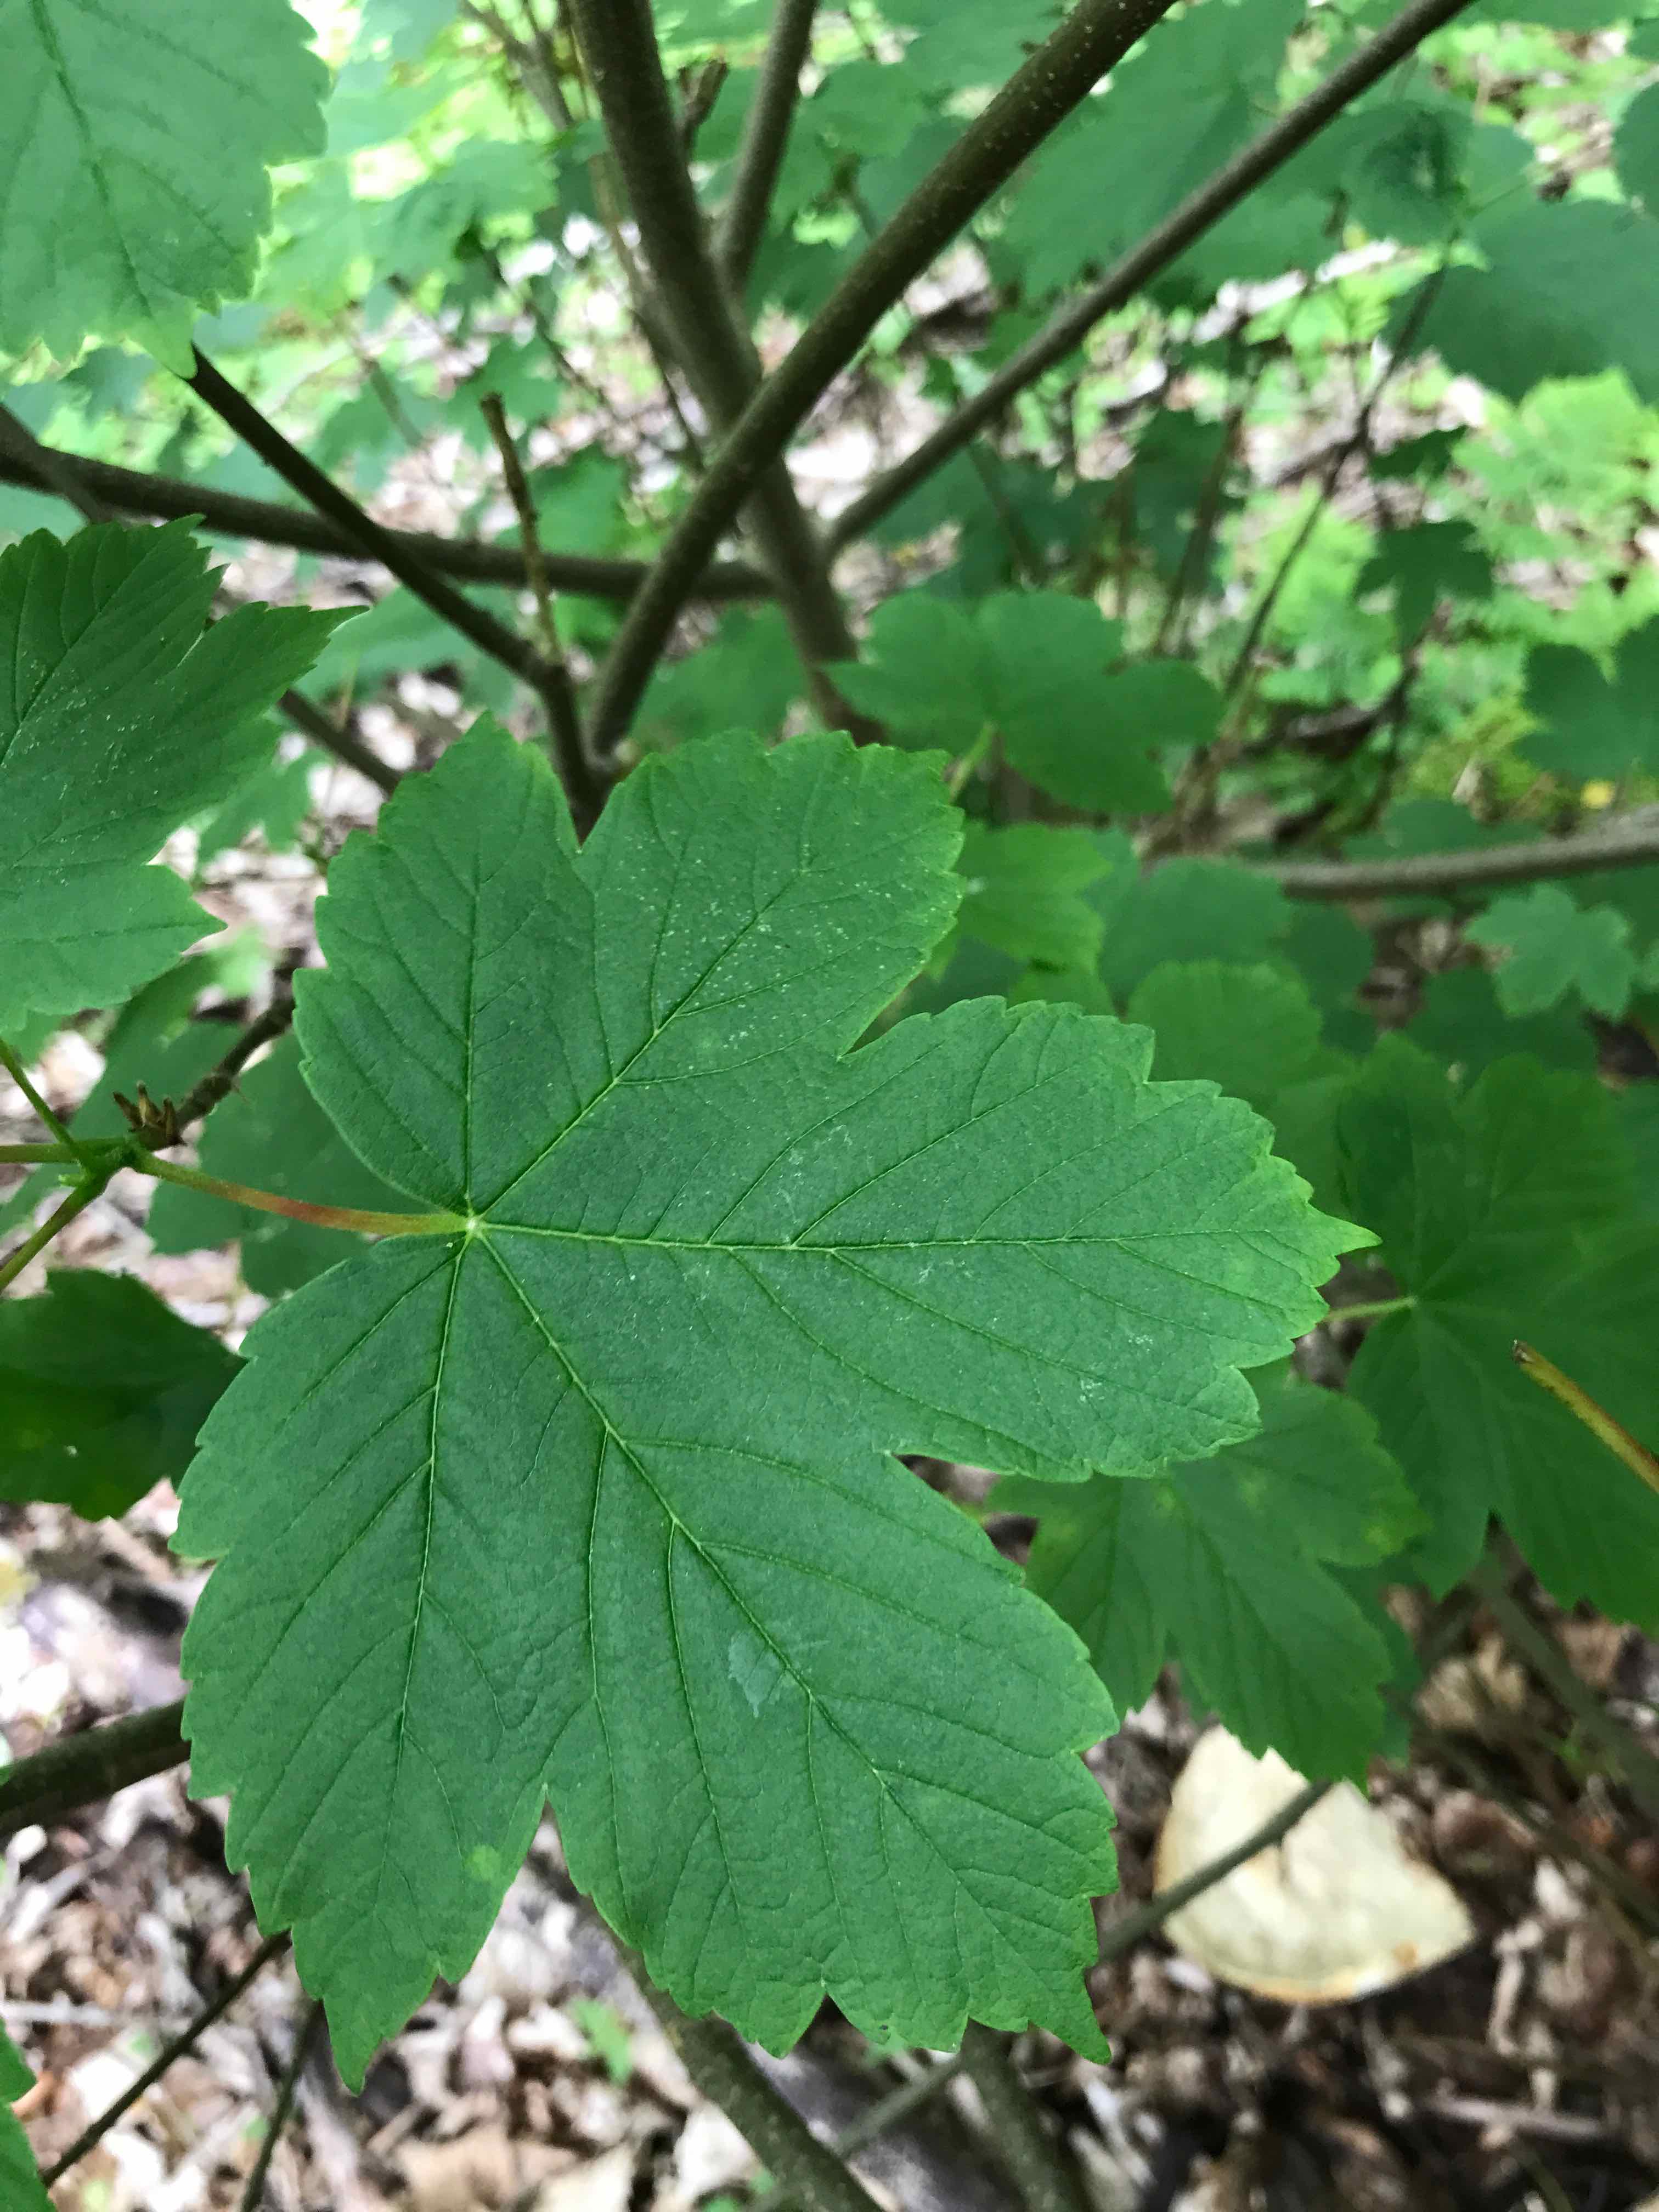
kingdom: Fungi
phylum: Basidiomycota
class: Agaricomycetes
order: Polyporales
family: Polyporaceae
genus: Cerioporus
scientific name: Cerioporus squamosus
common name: skællet stilkporesvamp
